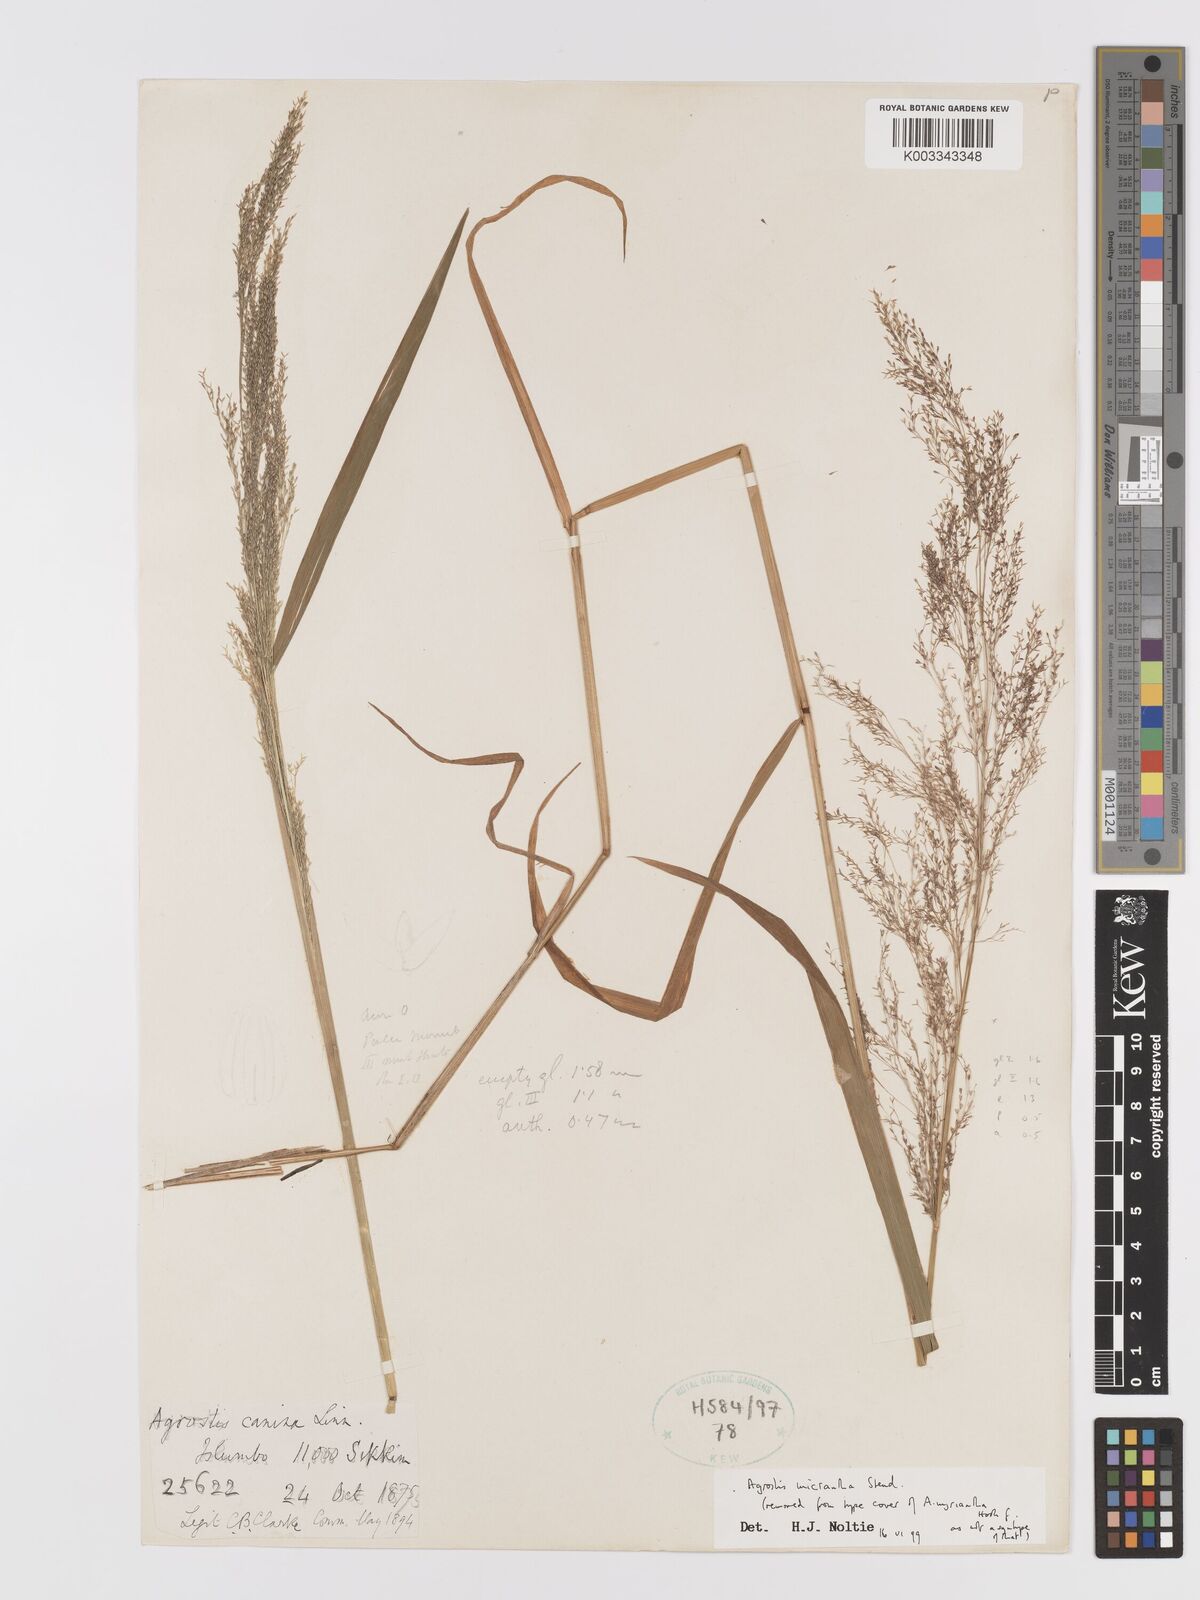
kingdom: Plantae
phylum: Tracheophyta
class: Liliopsida
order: Poales
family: Poaceae
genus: Agrostis
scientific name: Agrostis micrantha
